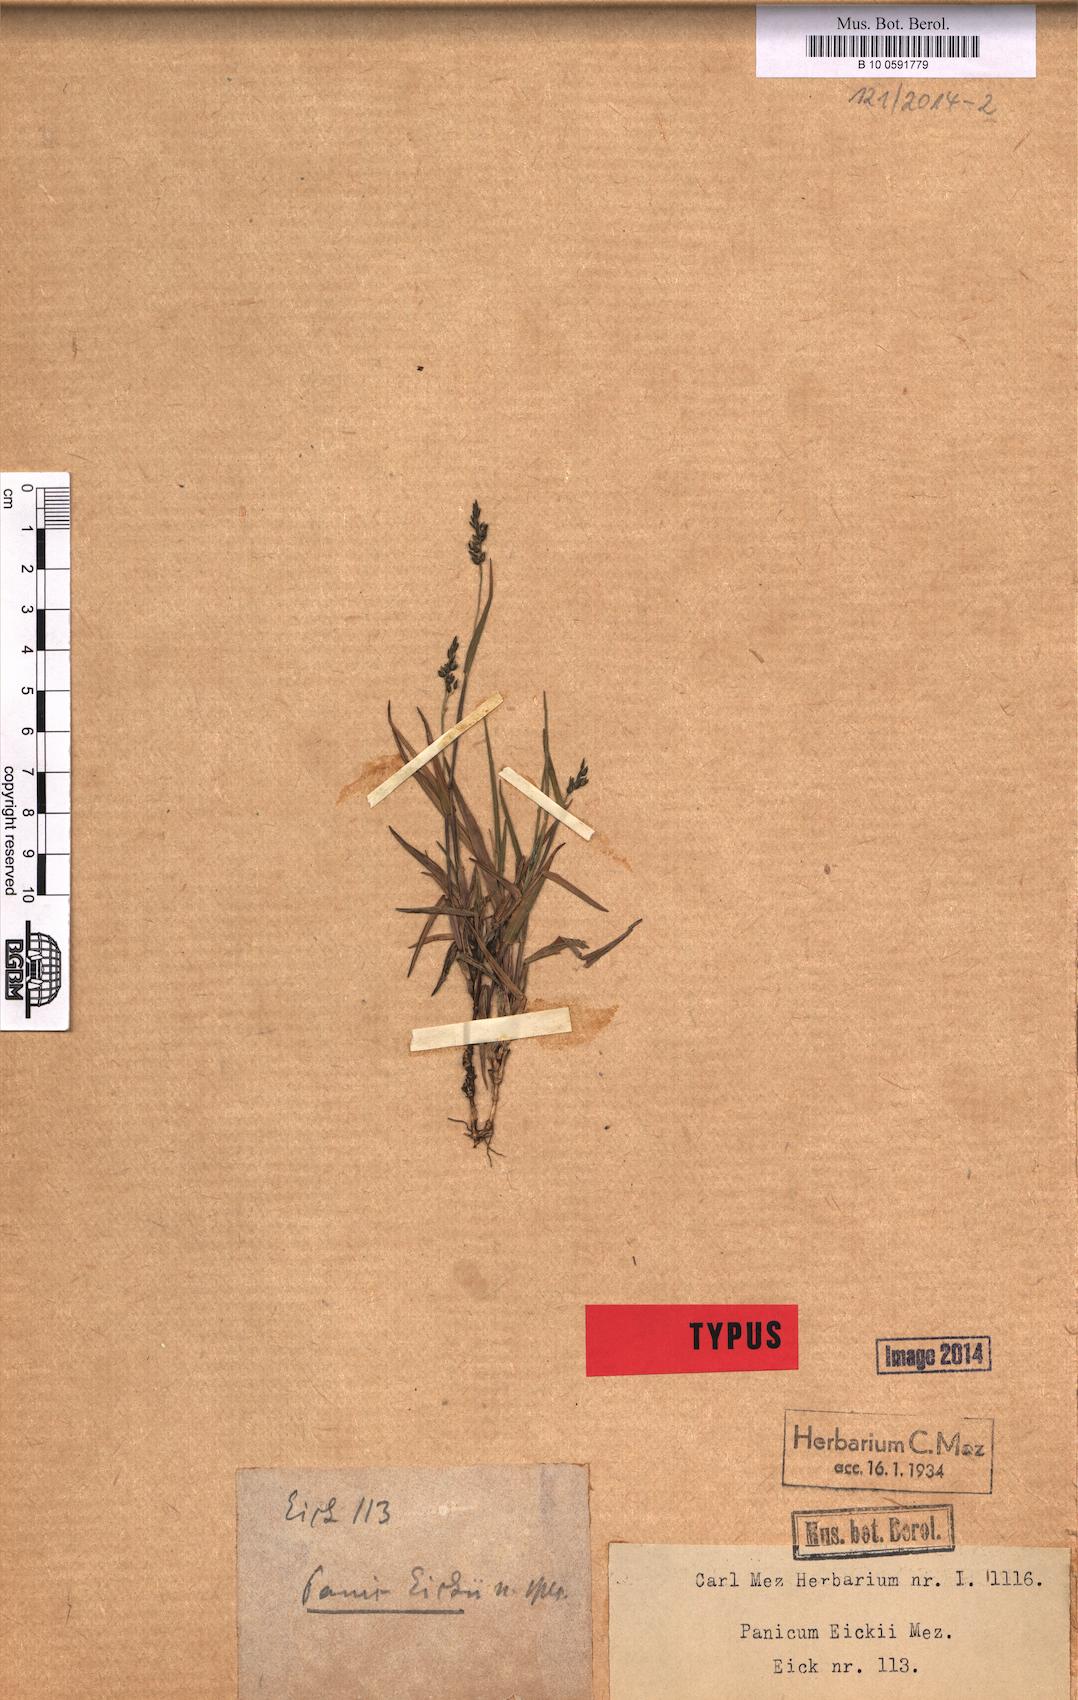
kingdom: Plantae
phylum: Tracheophyta
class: Liliopsida
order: Poales
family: Poaceae
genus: Panicum
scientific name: Panicum eickii
